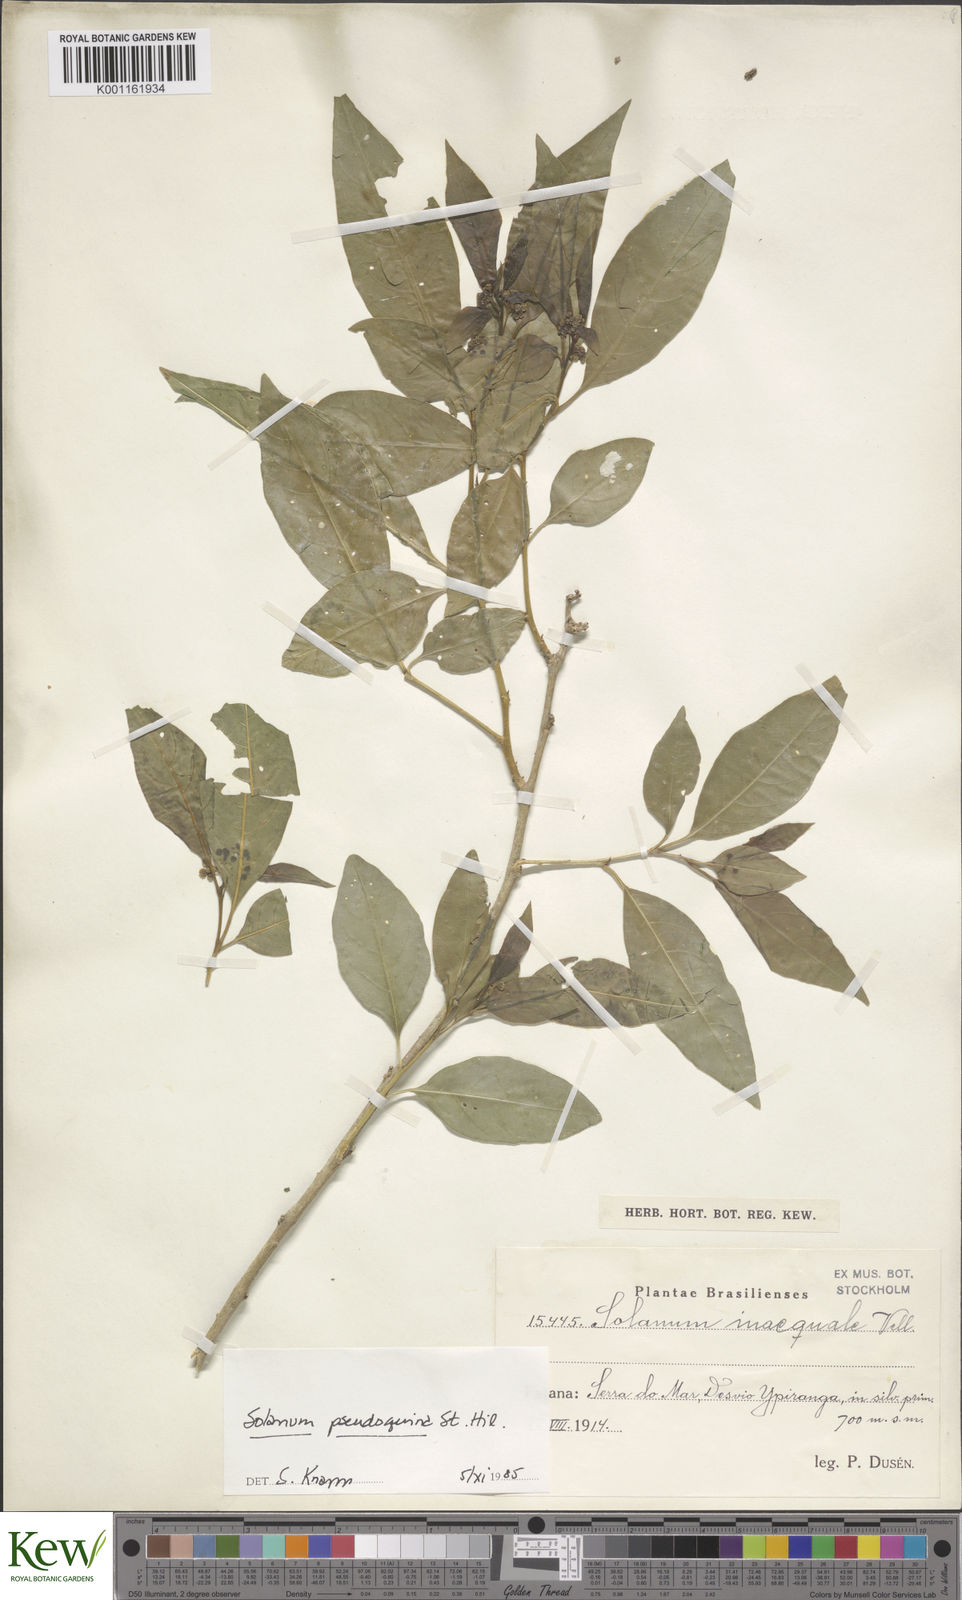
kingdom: Plantae
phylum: Tracheophyta
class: Magnoliopsida
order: Solanales
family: Solanaceae
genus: Solanum
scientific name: Solanum pseudoquina
